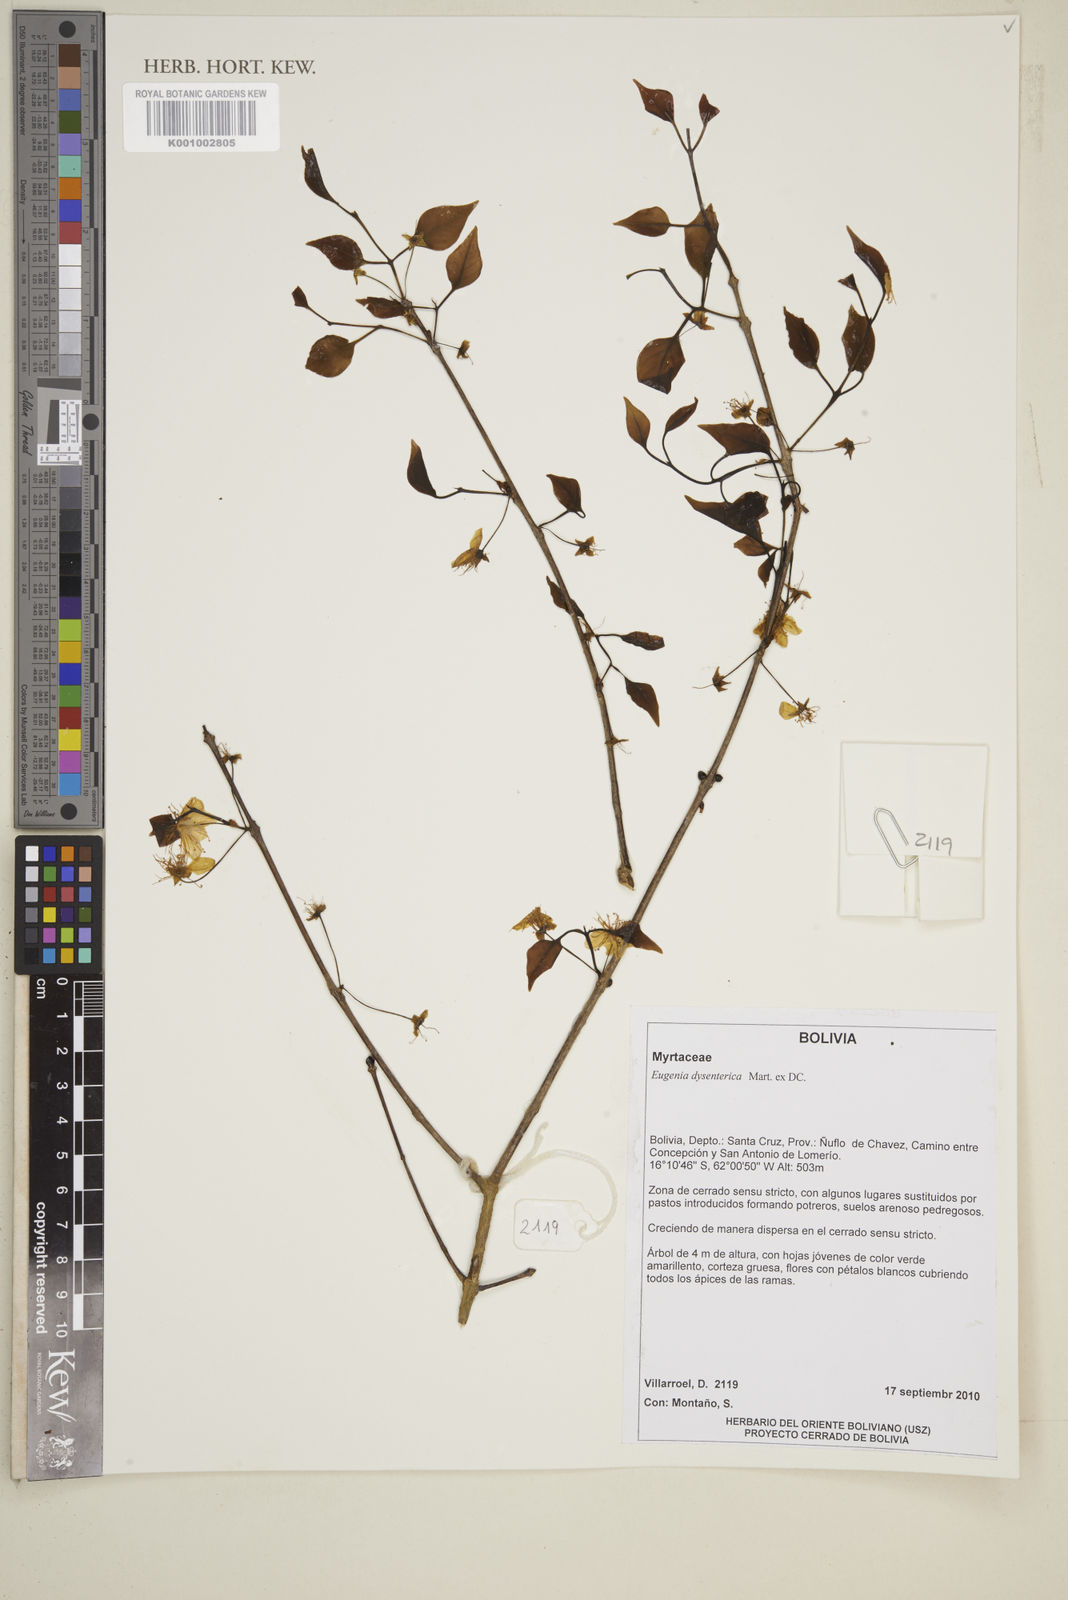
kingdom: Plantae
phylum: Tracheophyta
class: Magnoliopsida
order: Myrtales
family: Myrtaceae
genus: Eugenia
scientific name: Eugenia dysenterica
